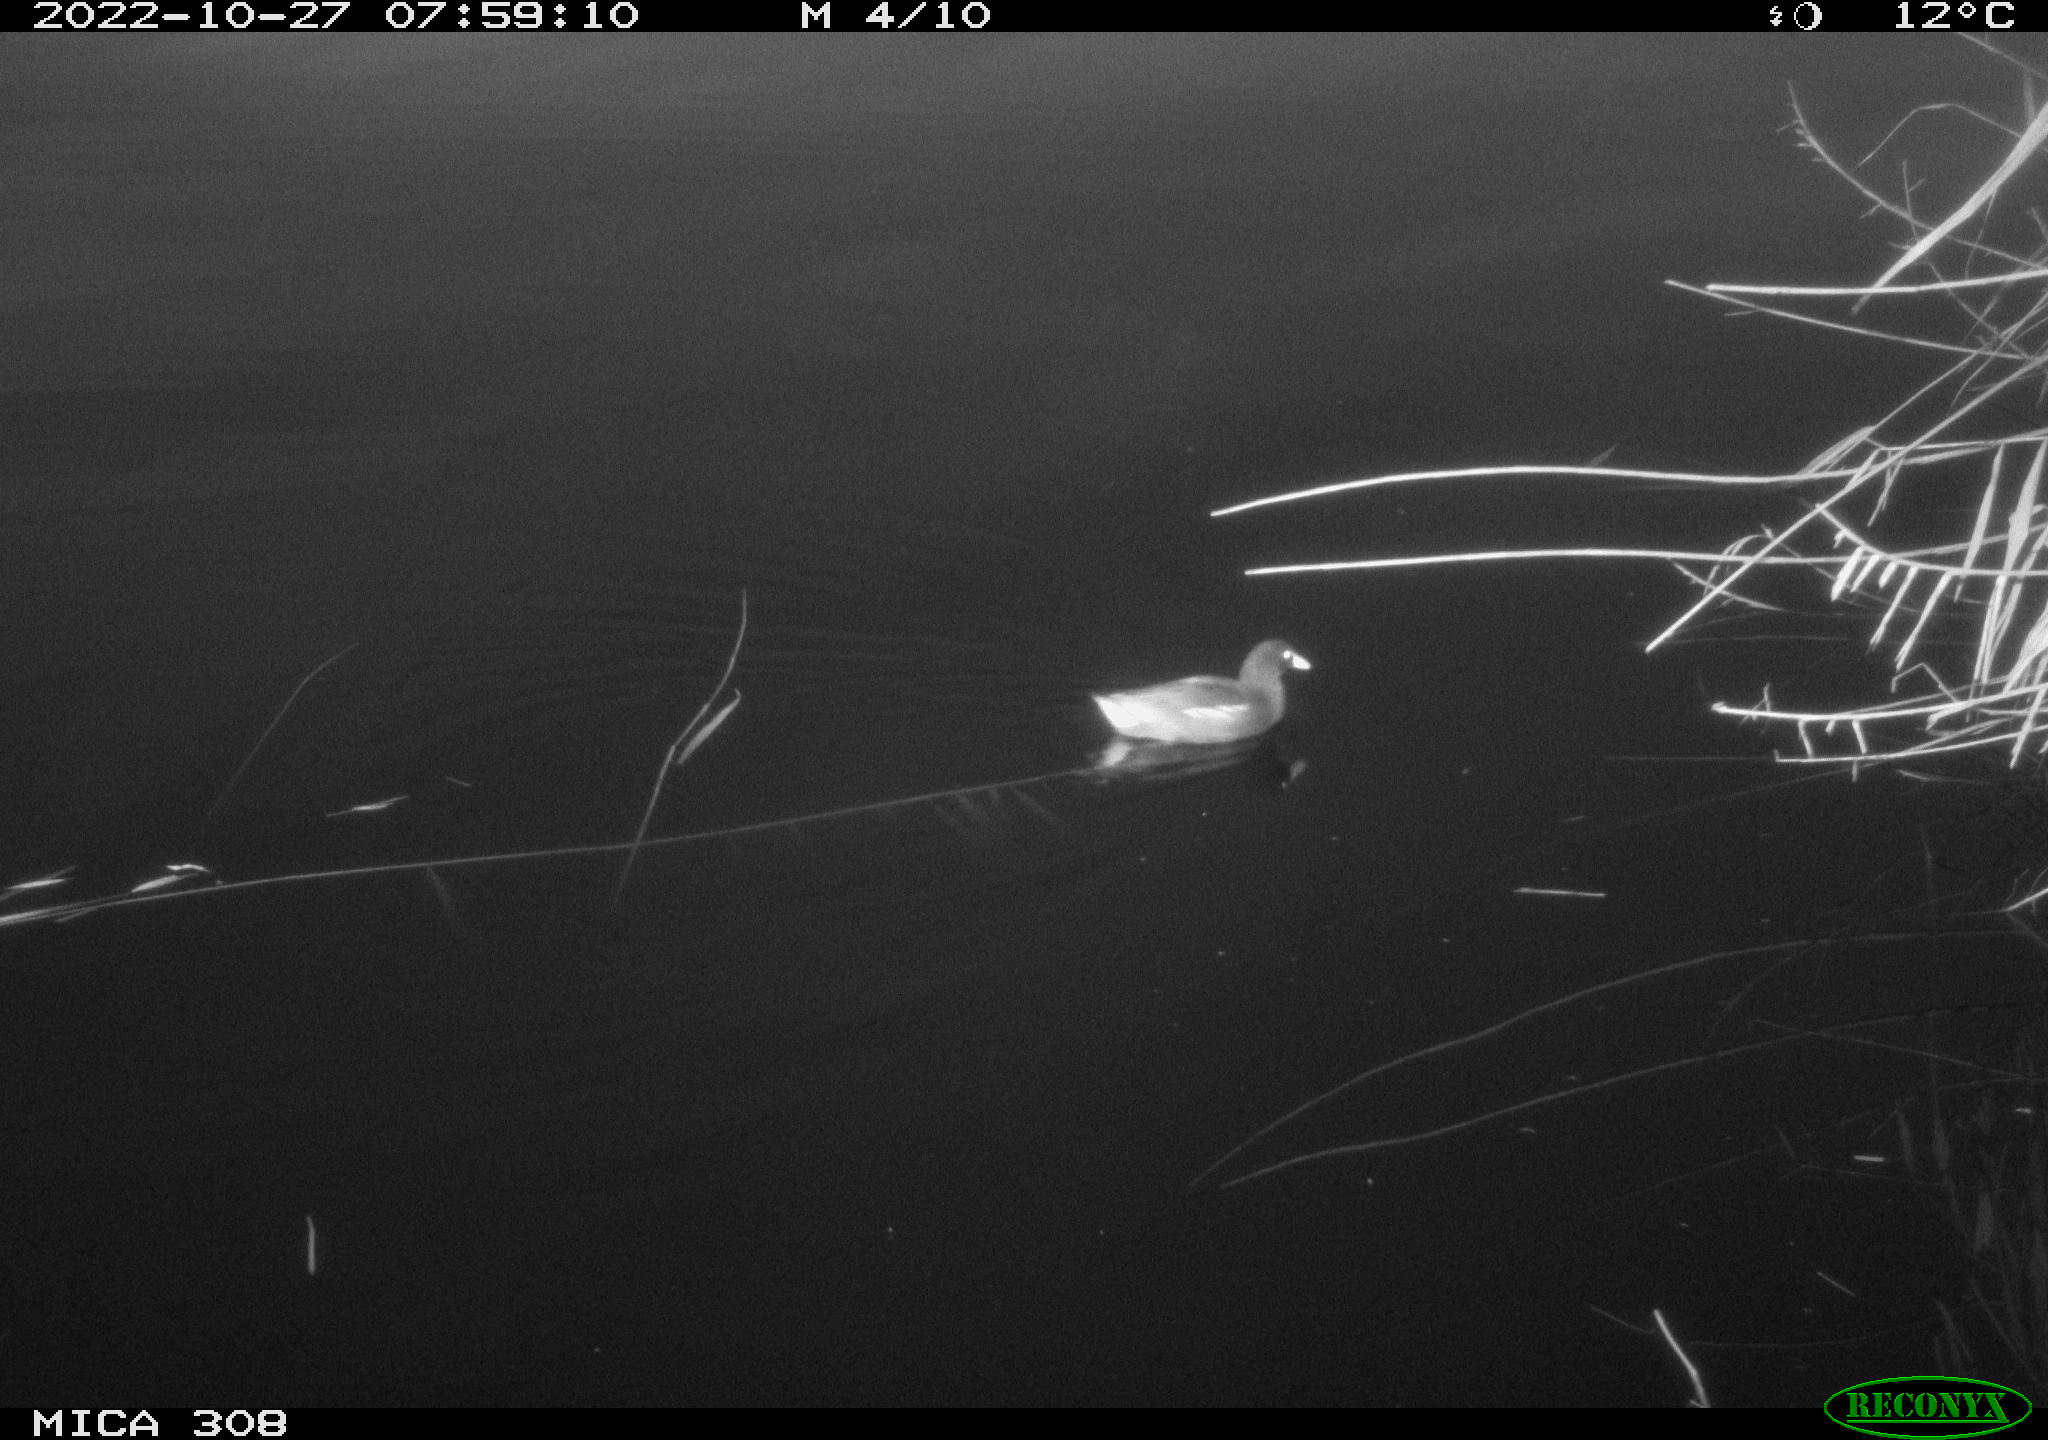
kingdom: Animalia
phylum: Chordata
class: Aves
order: Gruiformes
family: Rallidae
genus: Gallinula
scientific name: Gallinula chloropus
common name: Common moorhen
